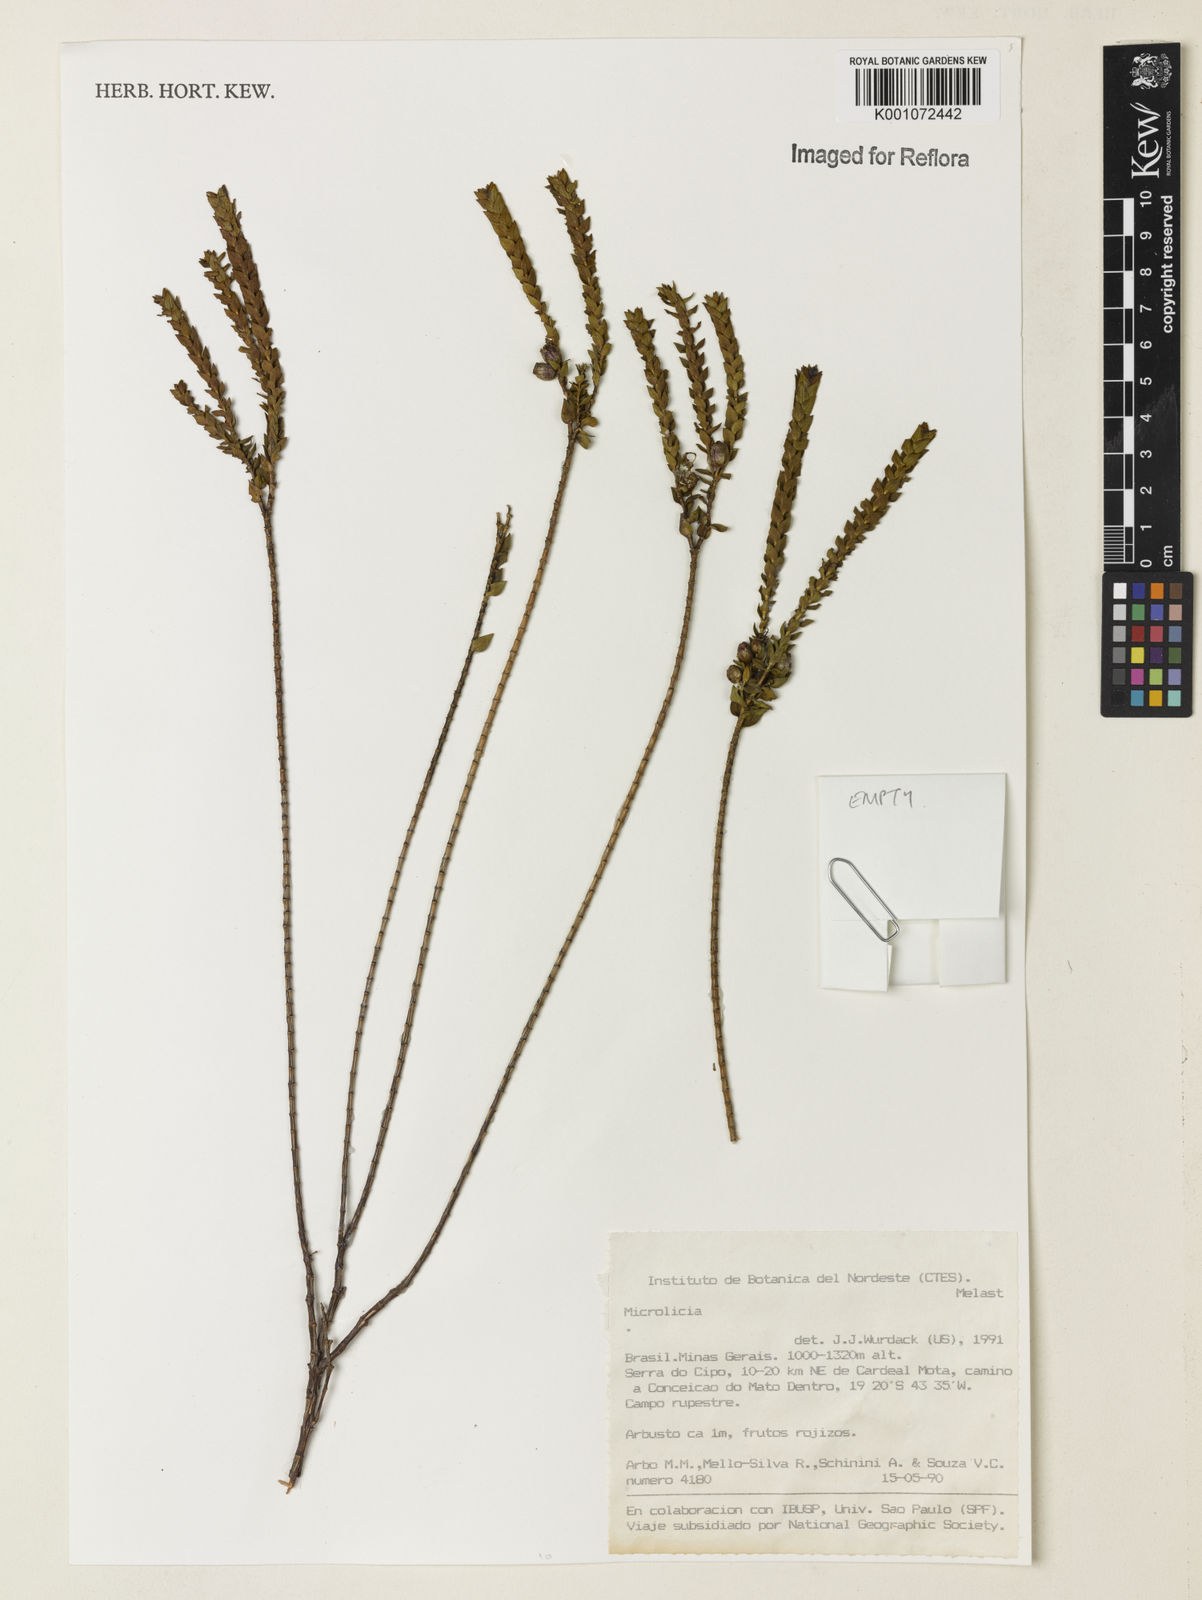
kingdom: Plantae
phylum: Tracheophyta
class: Magnoliopsida
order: Myrtales
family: Melastomataceae
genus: Microlicia
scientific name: Microlicia
